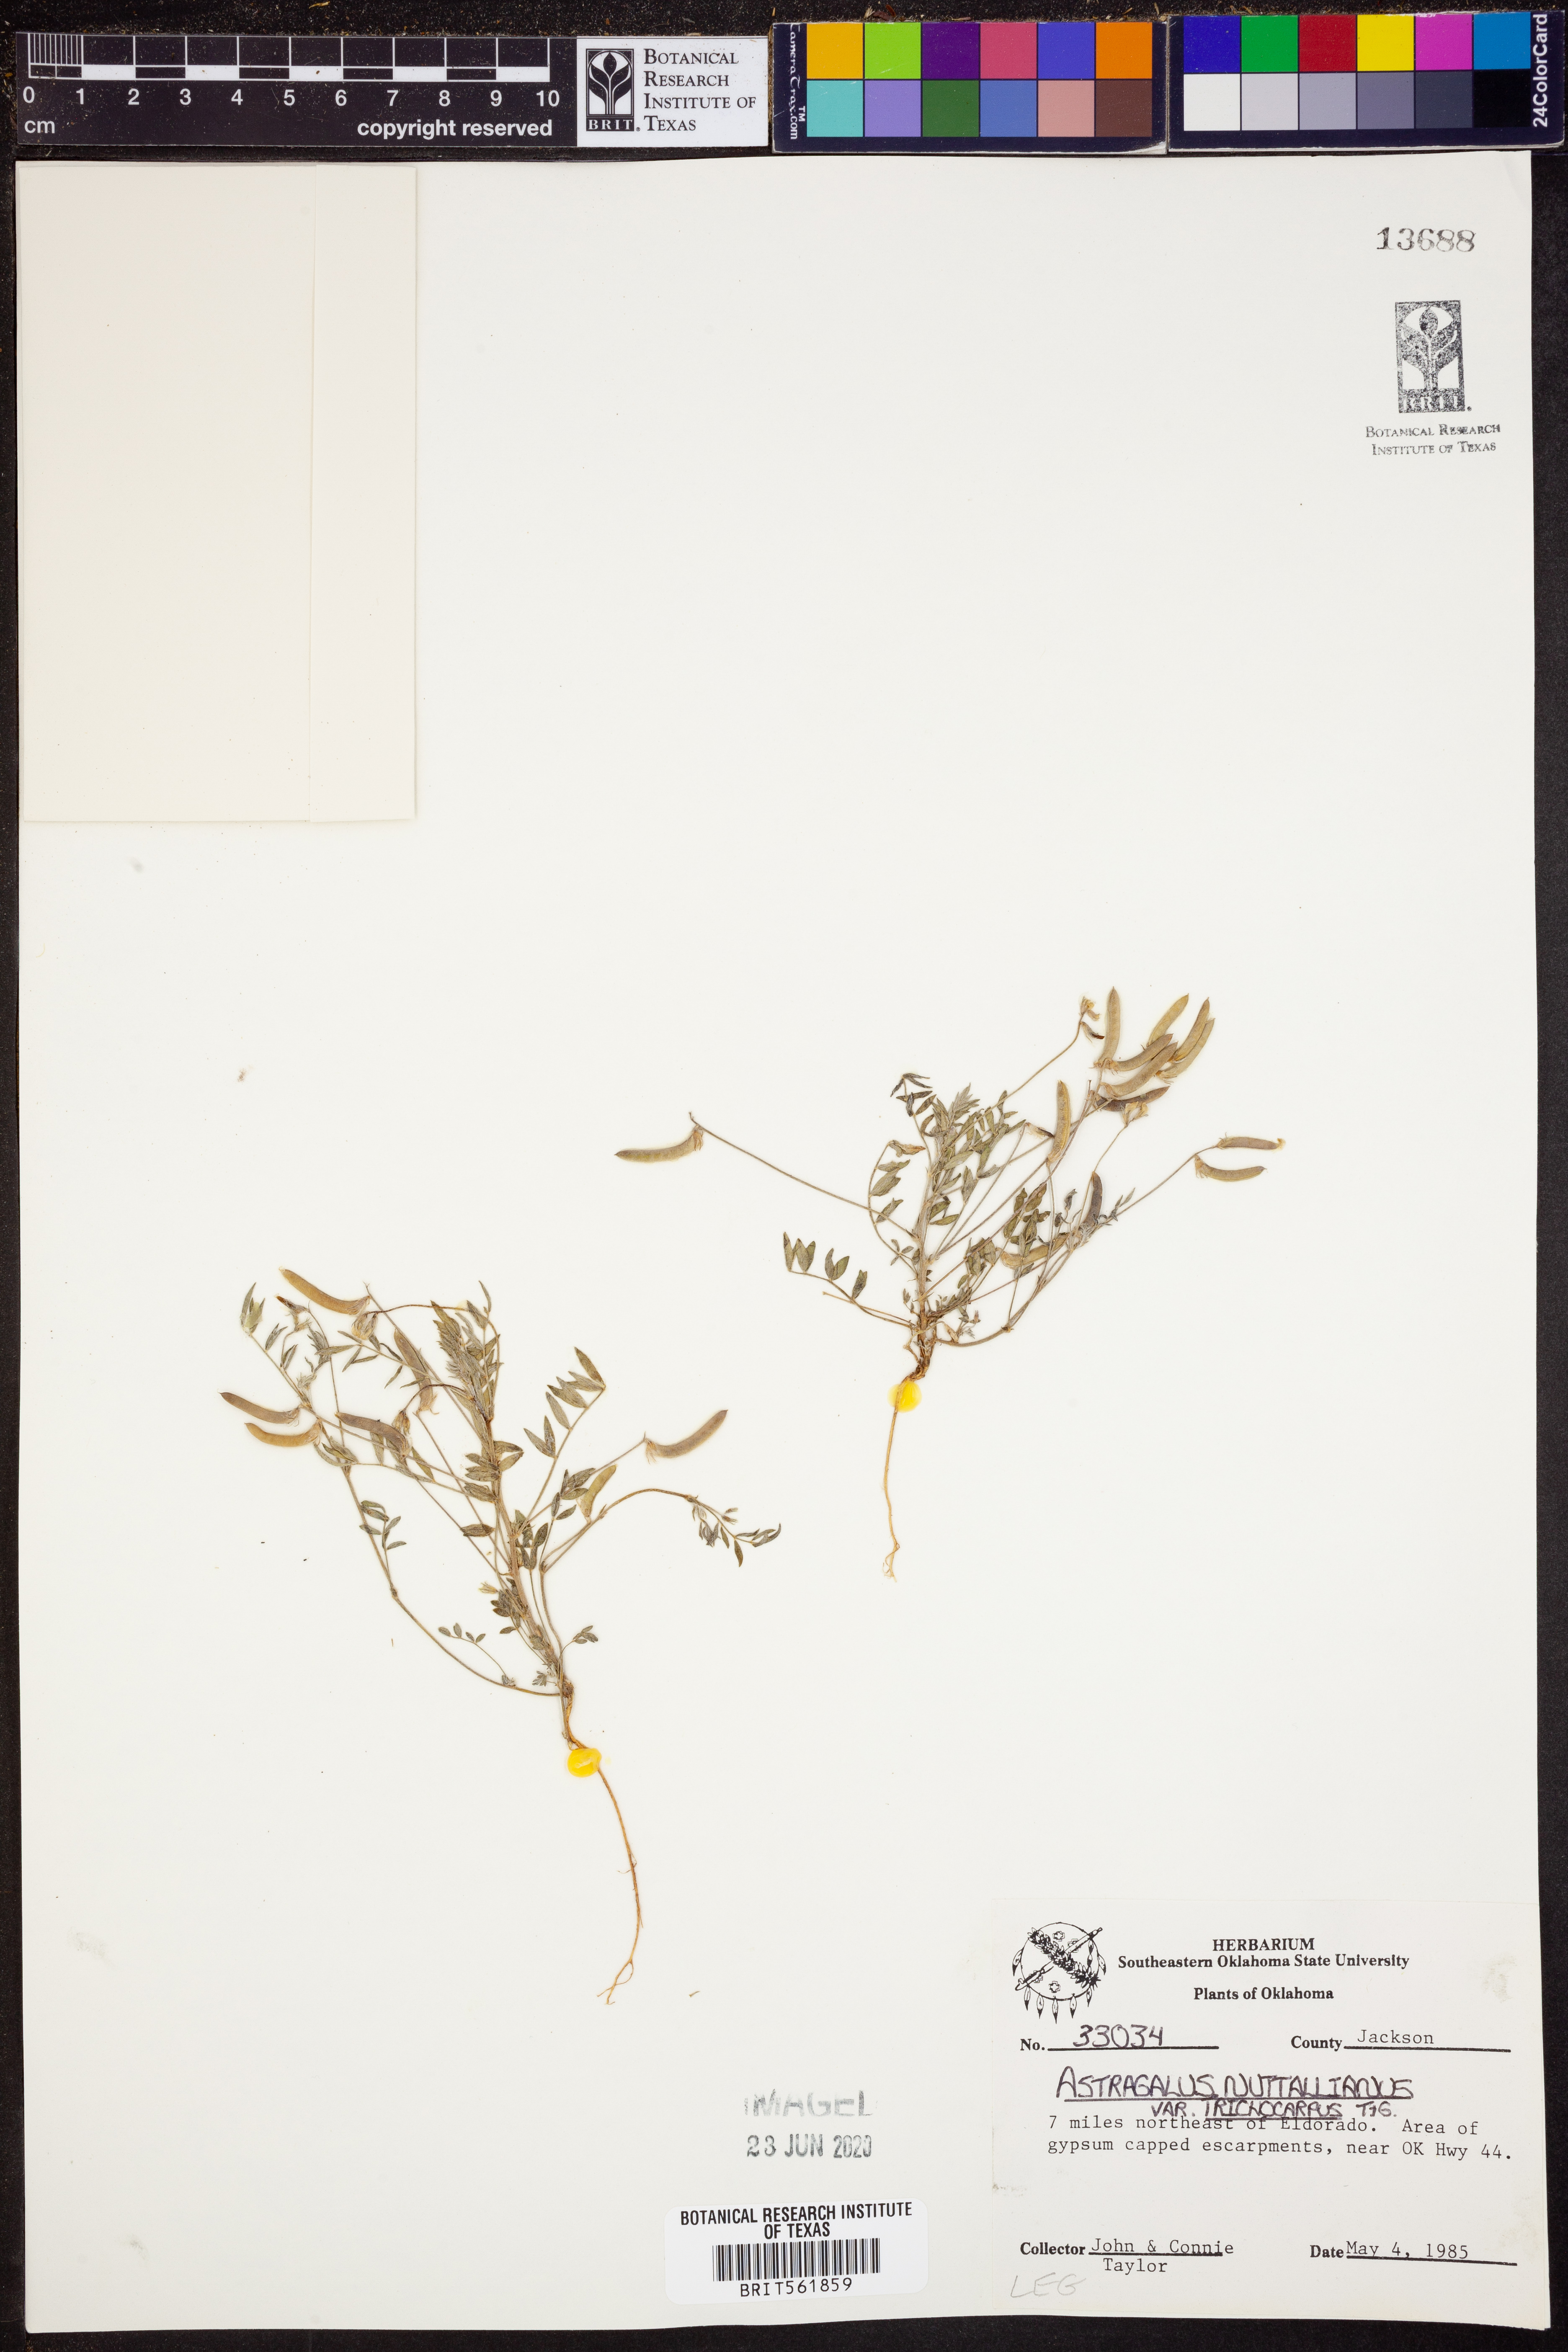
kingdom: Plantae
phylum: Tracheophyta
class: Magnoliopsida
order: Fabales
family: Fabaceae
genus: Astragalus
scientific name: Astragalus nuttallianus
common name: Smallflowered milkvetch
